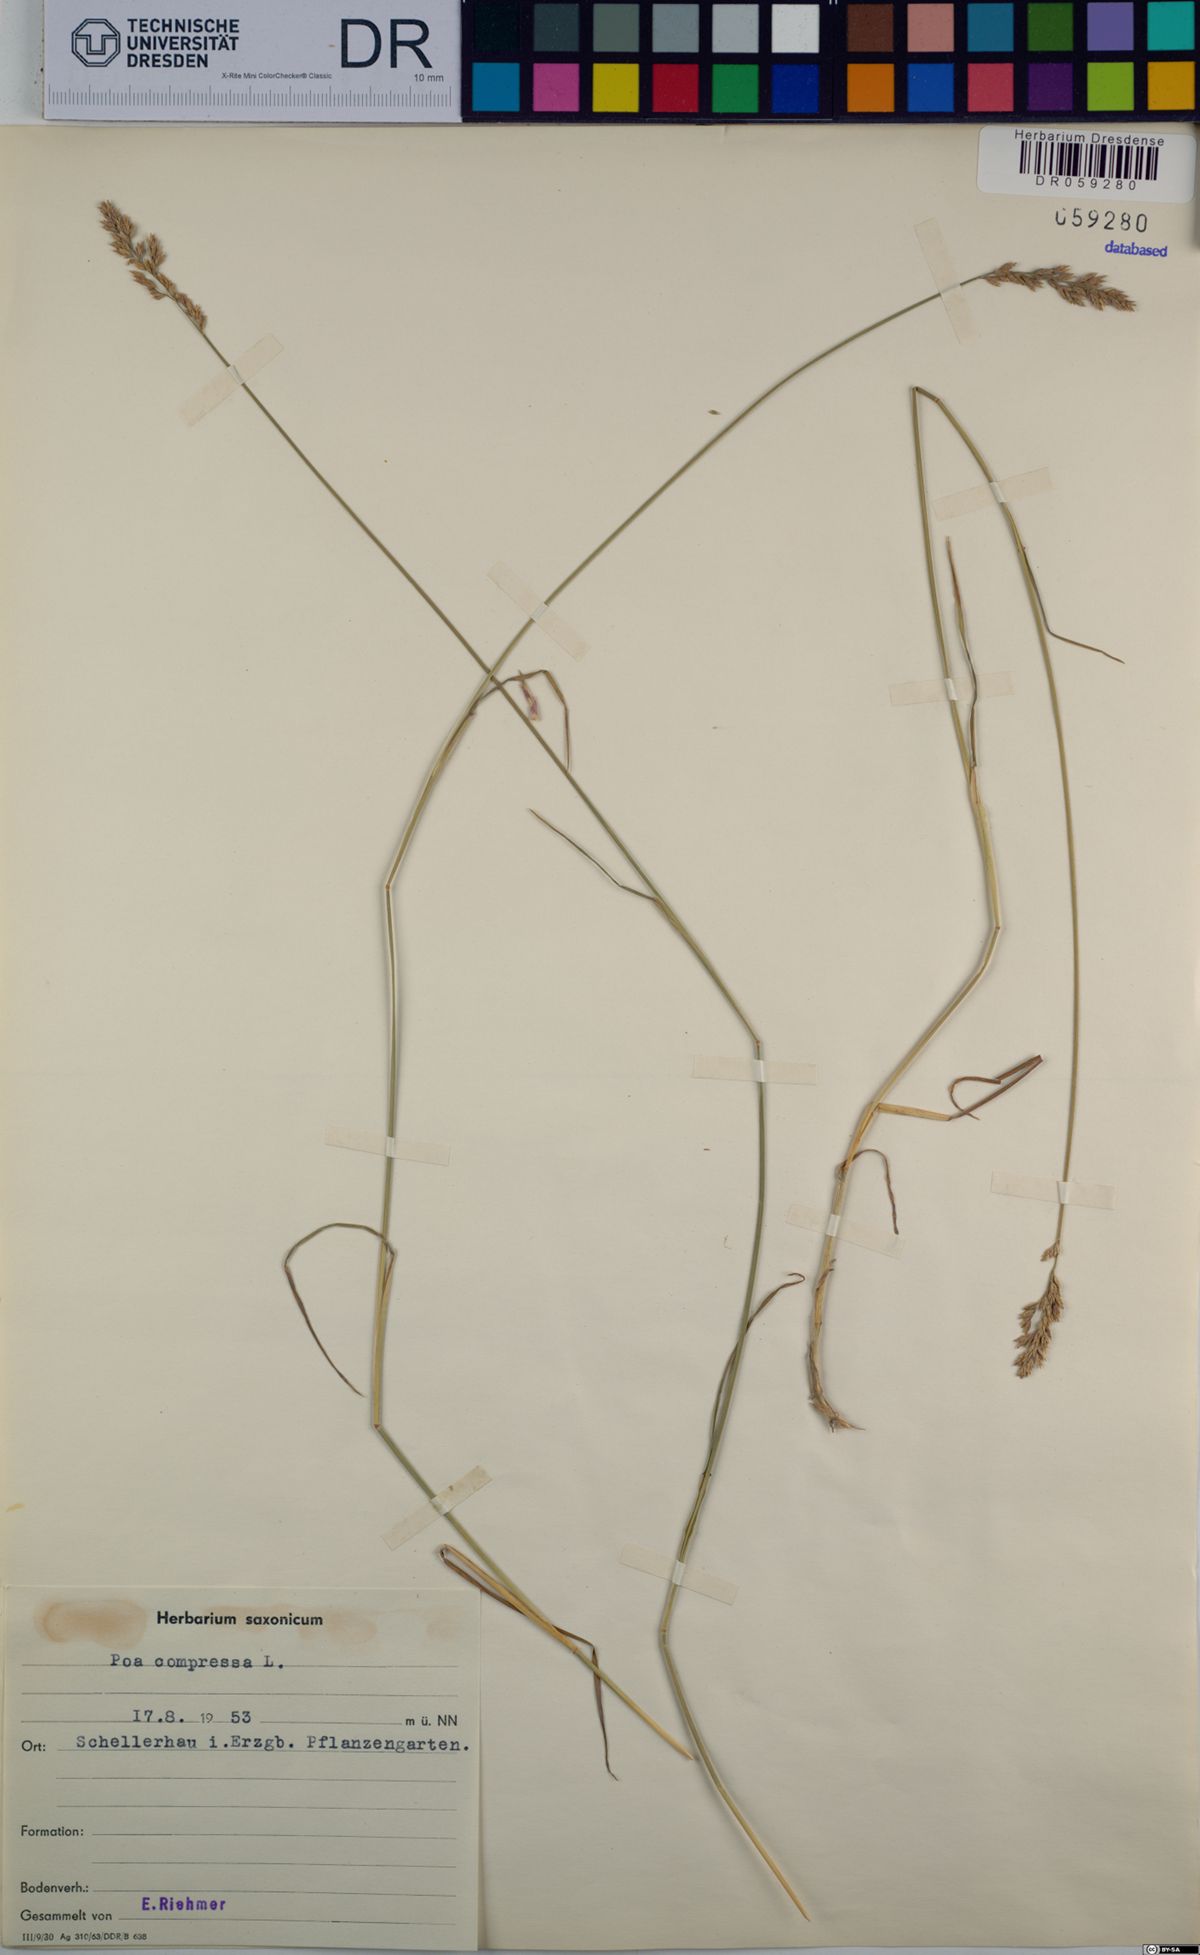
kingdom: Plantae
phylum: Tracheophyta
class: Liliopsida
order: Poales
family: Poaceae
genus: Poa
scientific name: Poa compressa
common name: Canada bluegrass
